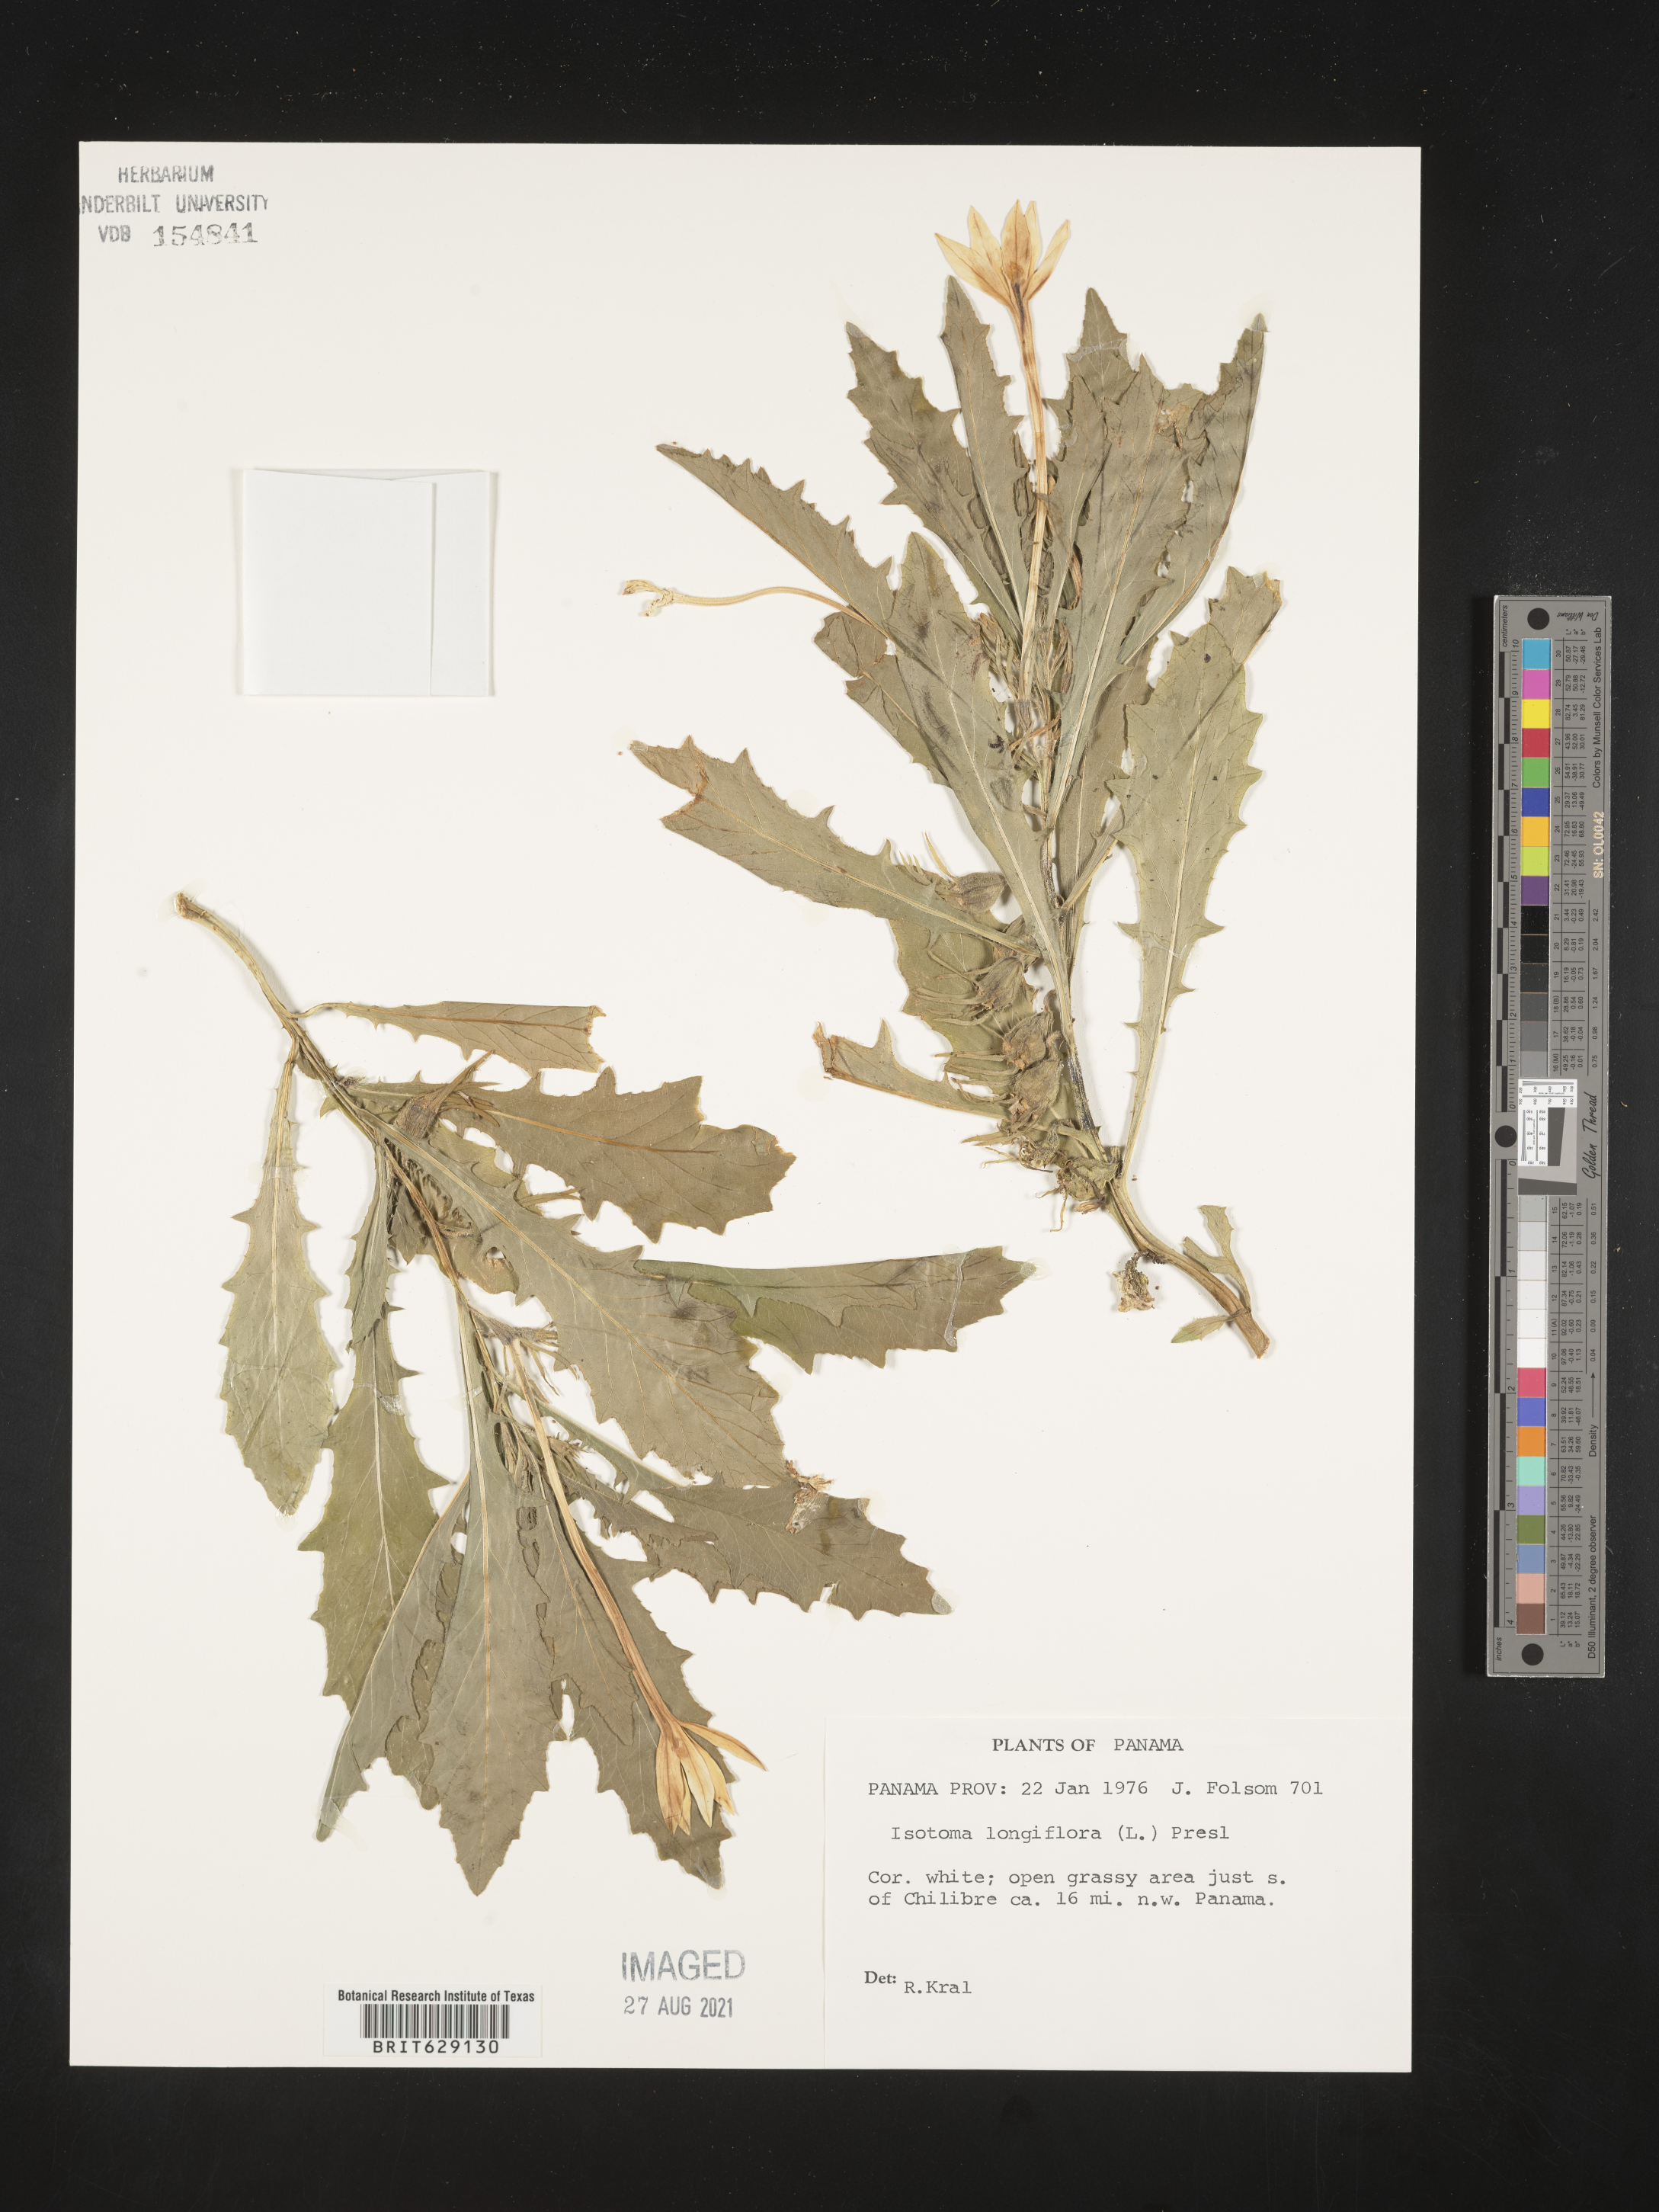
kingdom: Plantae
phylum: Tracheophyta
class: Magnoliopsida
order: Asterales
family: Campanulaceae
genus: Hippobroma
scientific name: Hippobroma longiflora
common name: Madamfate
